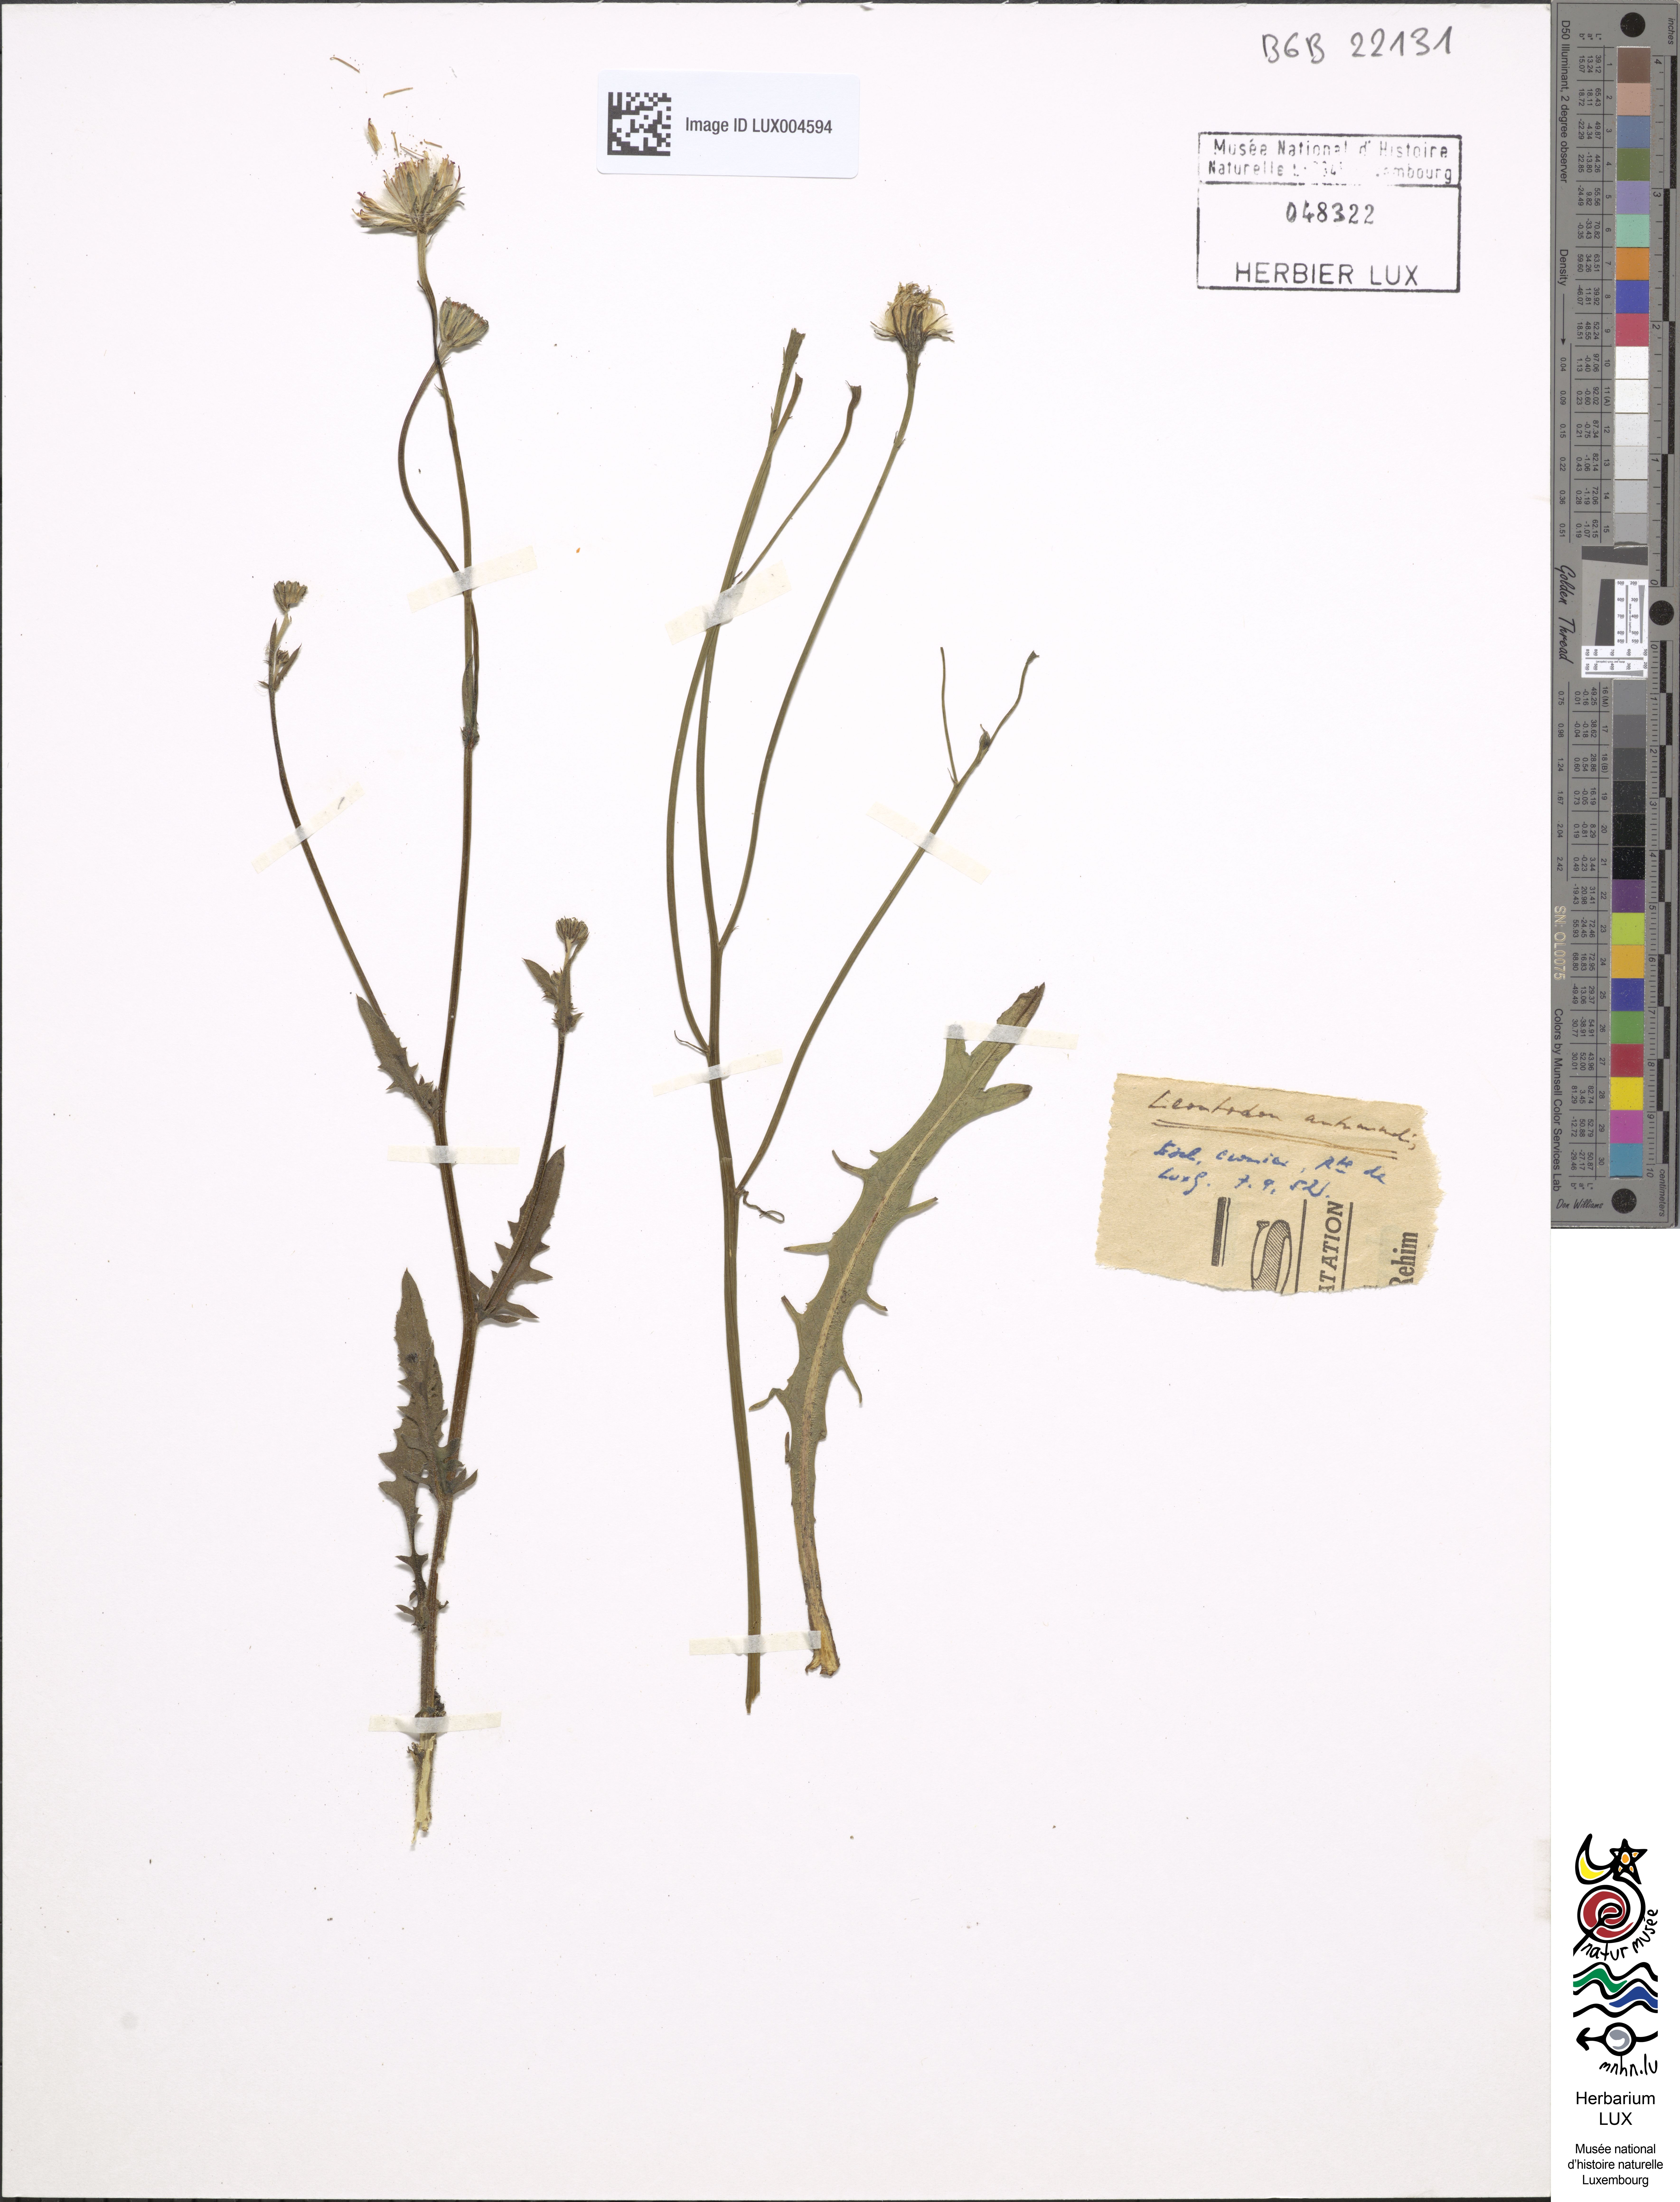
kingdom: Plantae
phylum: Tracheophyta
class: Magnoliopsida
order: Asterales
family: Asteraceae
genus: Scorzoneroides
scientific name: Scorzoneroides autumnalis
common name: Autumn hawkbit
